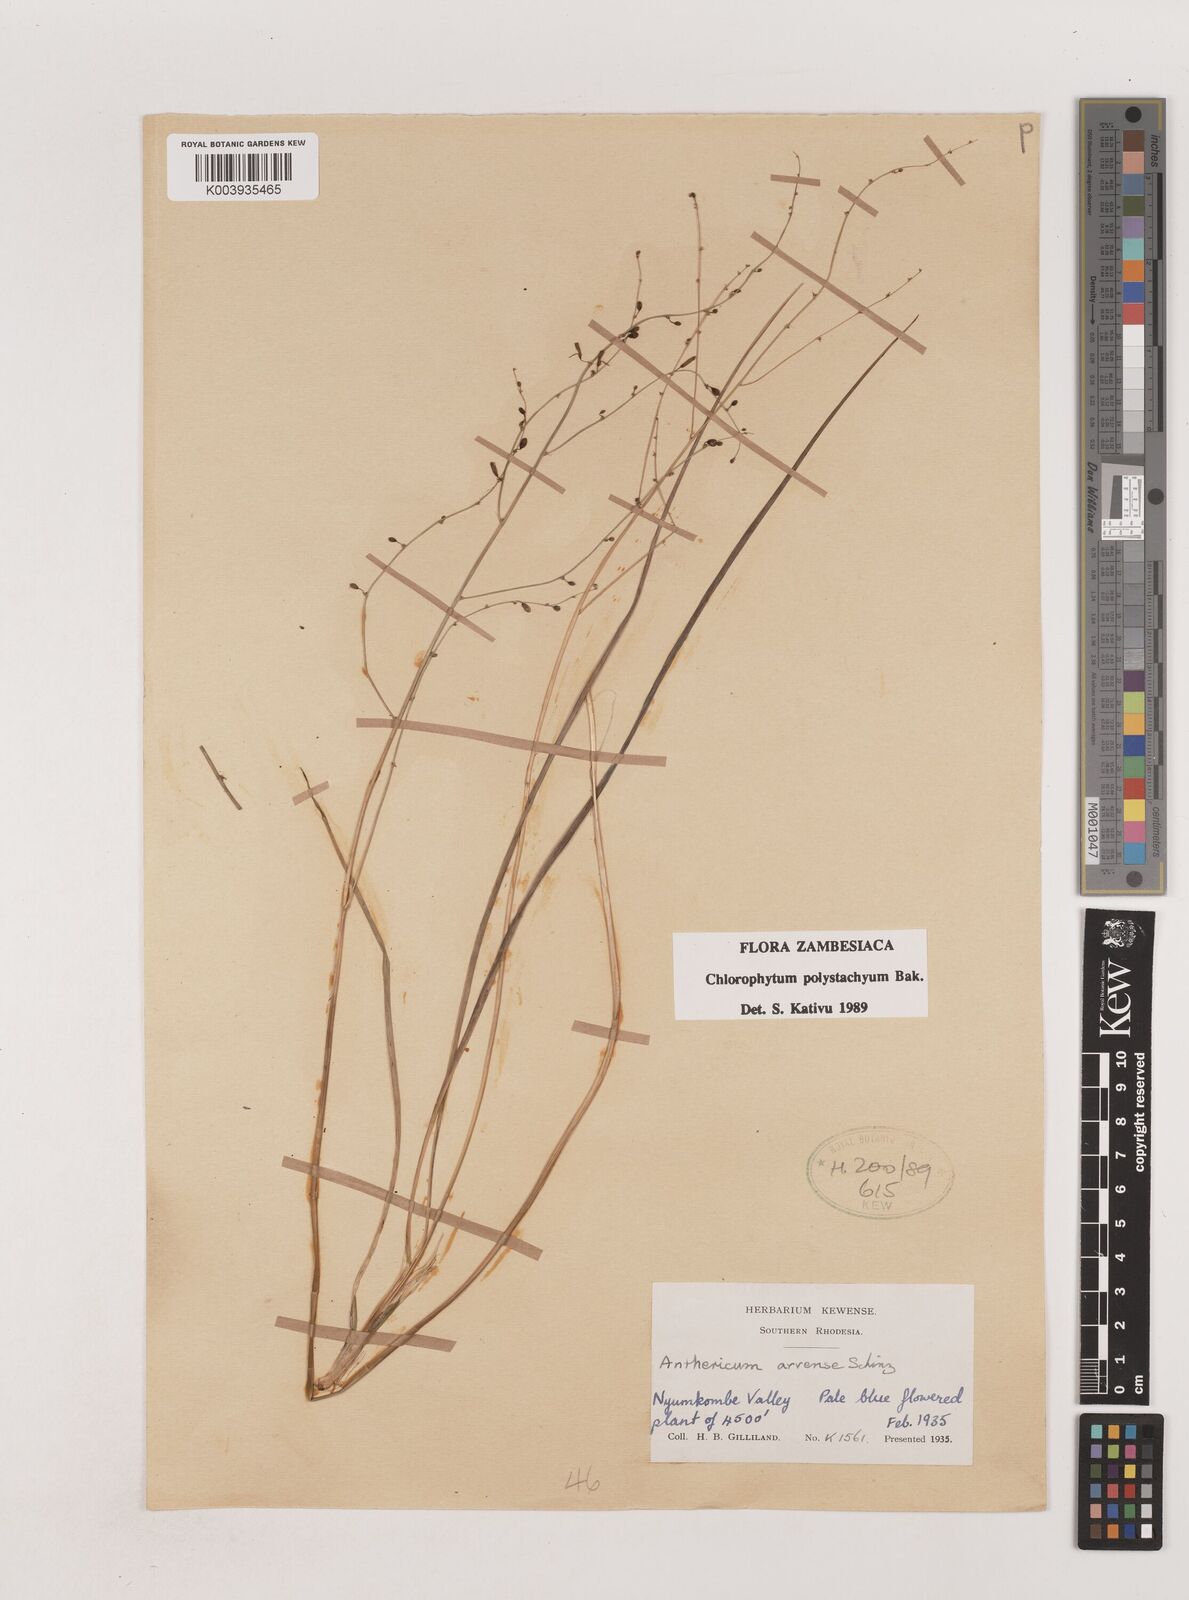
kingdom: Plantae
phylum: Tracheophyta
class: Liliopsida
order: Asparagales
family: Asparagaceae
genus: Chlorophytum
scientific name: Chlorophytum polystachys
